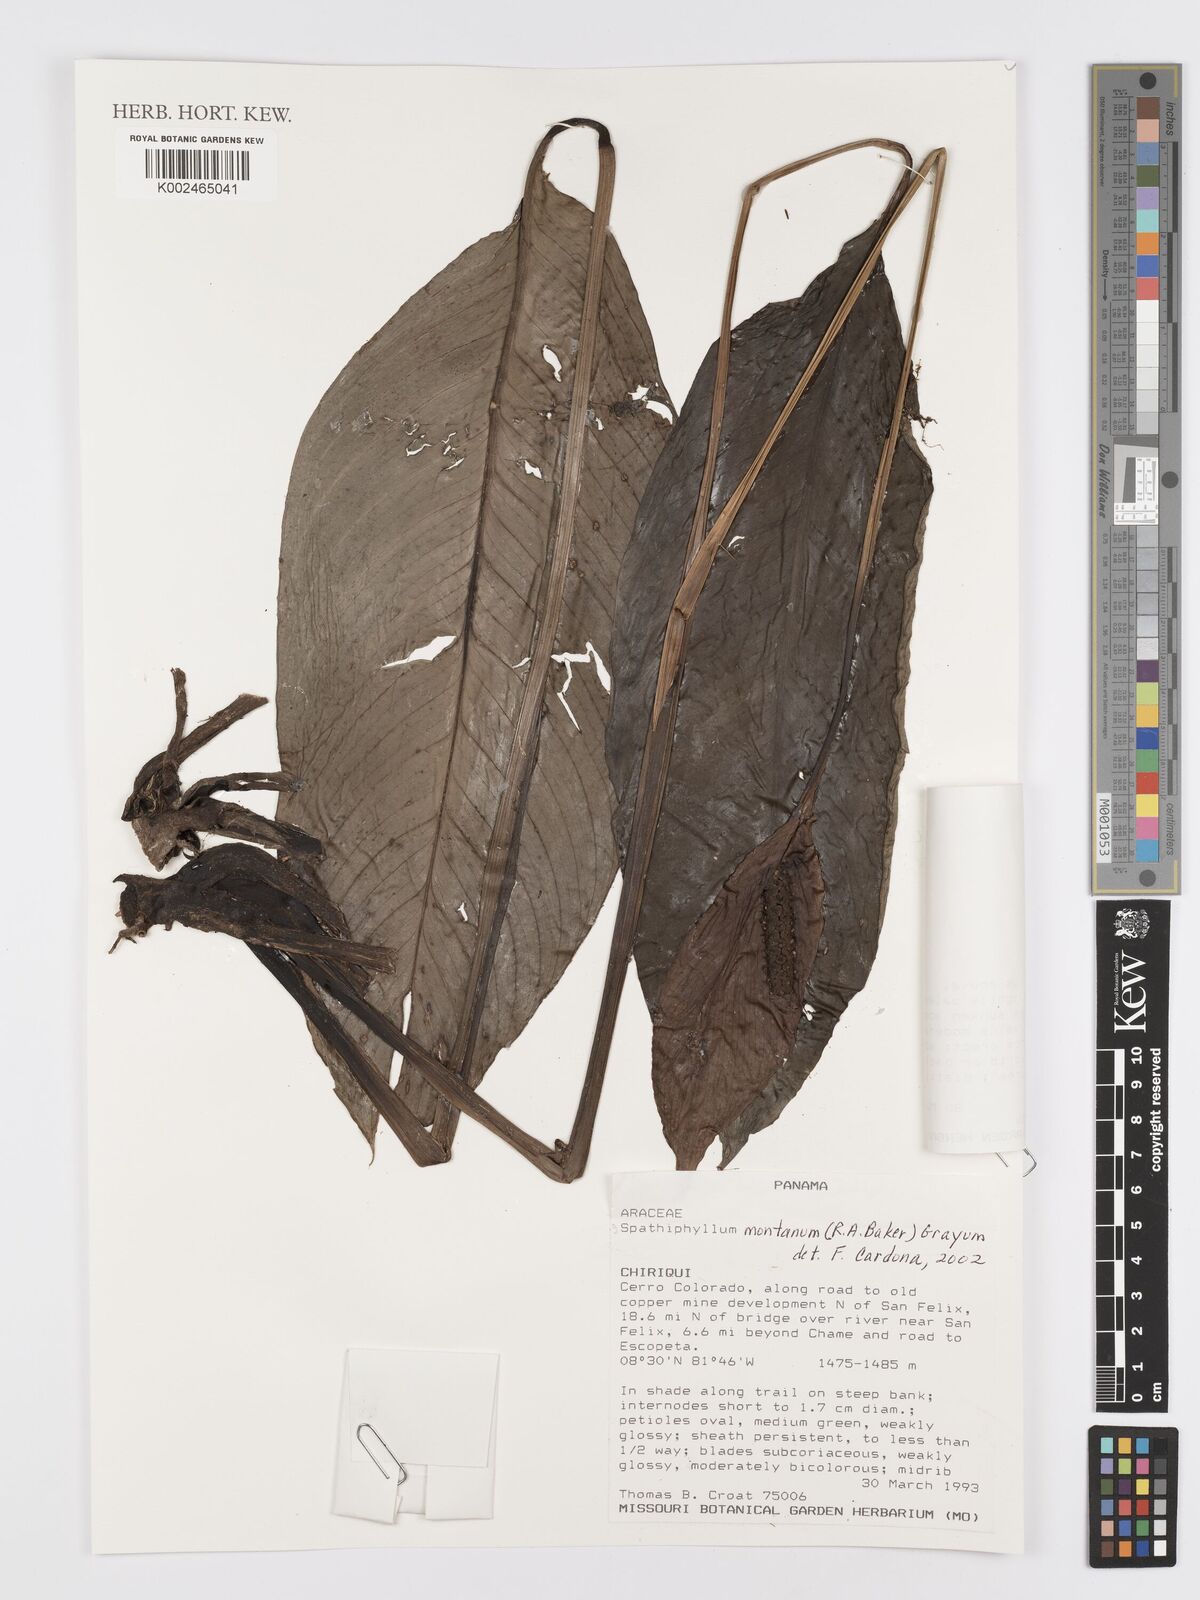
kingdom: Plantae
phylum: Tracheophyta
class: Liliopsida
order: Alismatales
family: Araceae
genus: Spathiphyllum
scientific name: Spathiphyllum montanum
